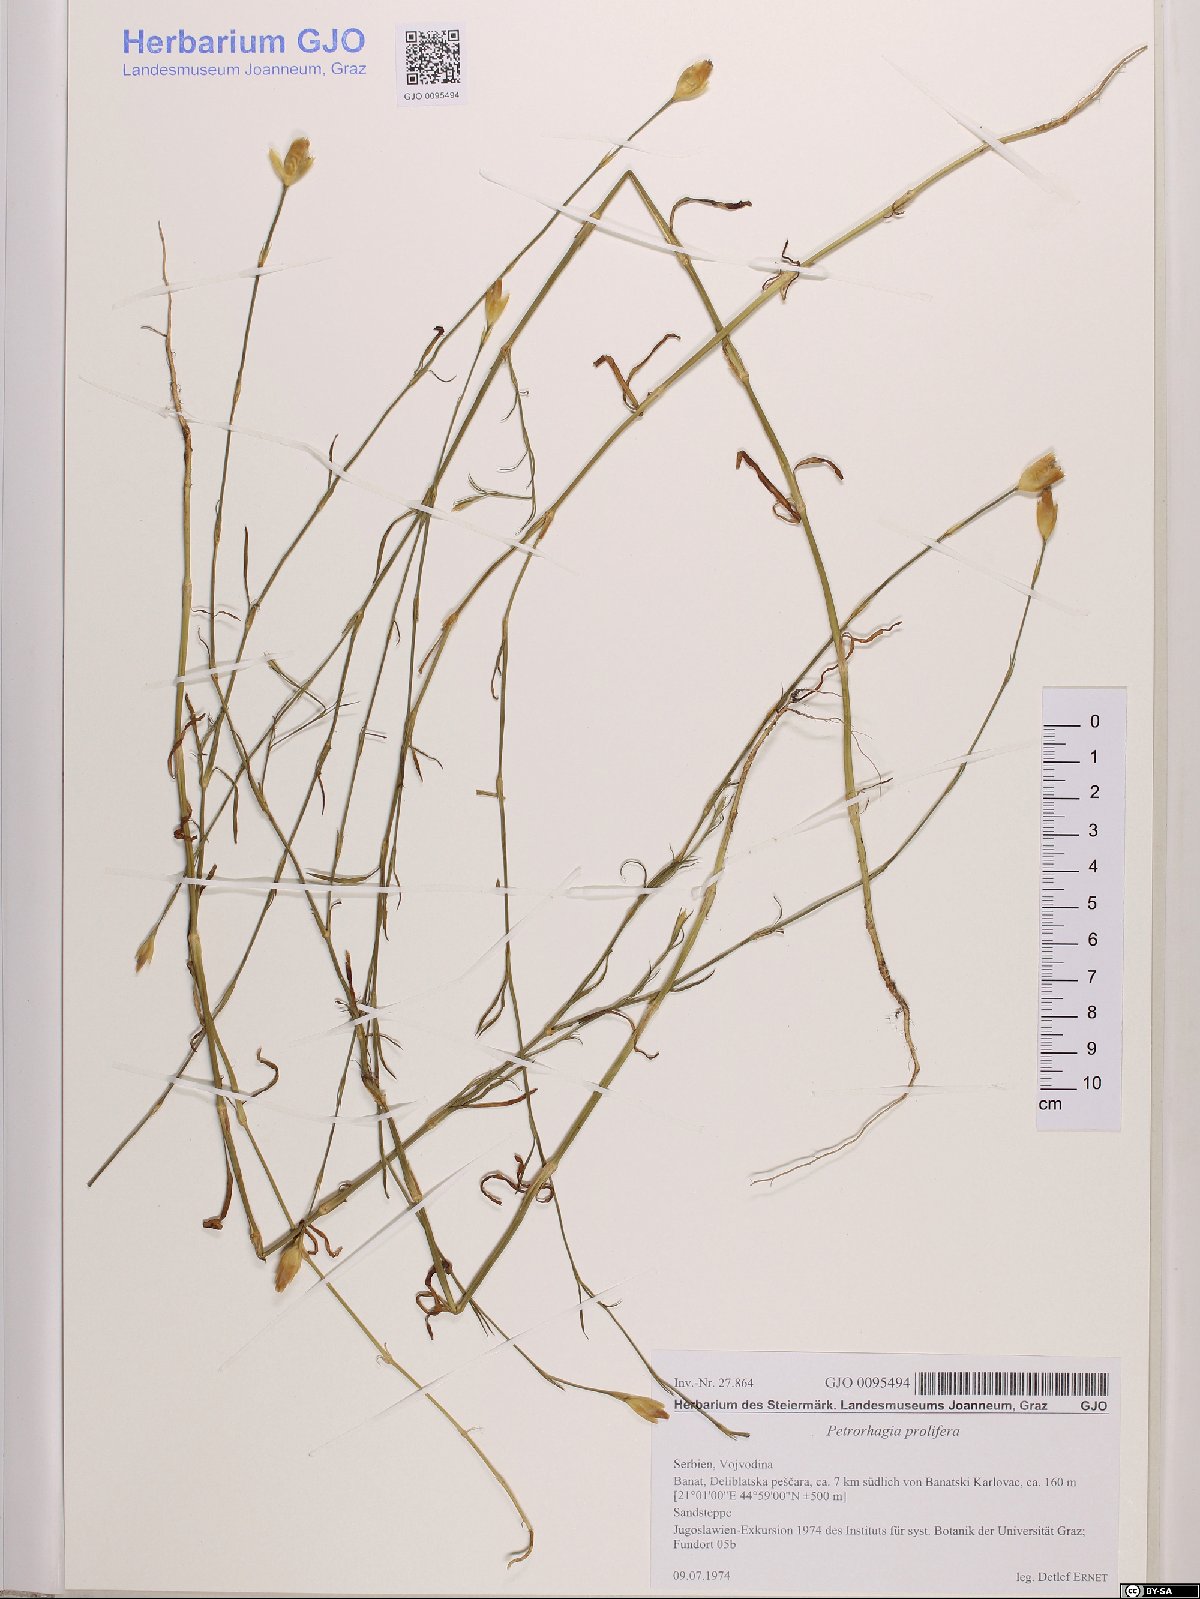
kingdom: Plantae
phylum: Tracheophyta
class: Magnoliopsida
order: Caryophyllales
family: Caryophyllaceae
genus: Petrorhagia
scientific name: Petrorhagia prolifera
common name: Proliferous pink
